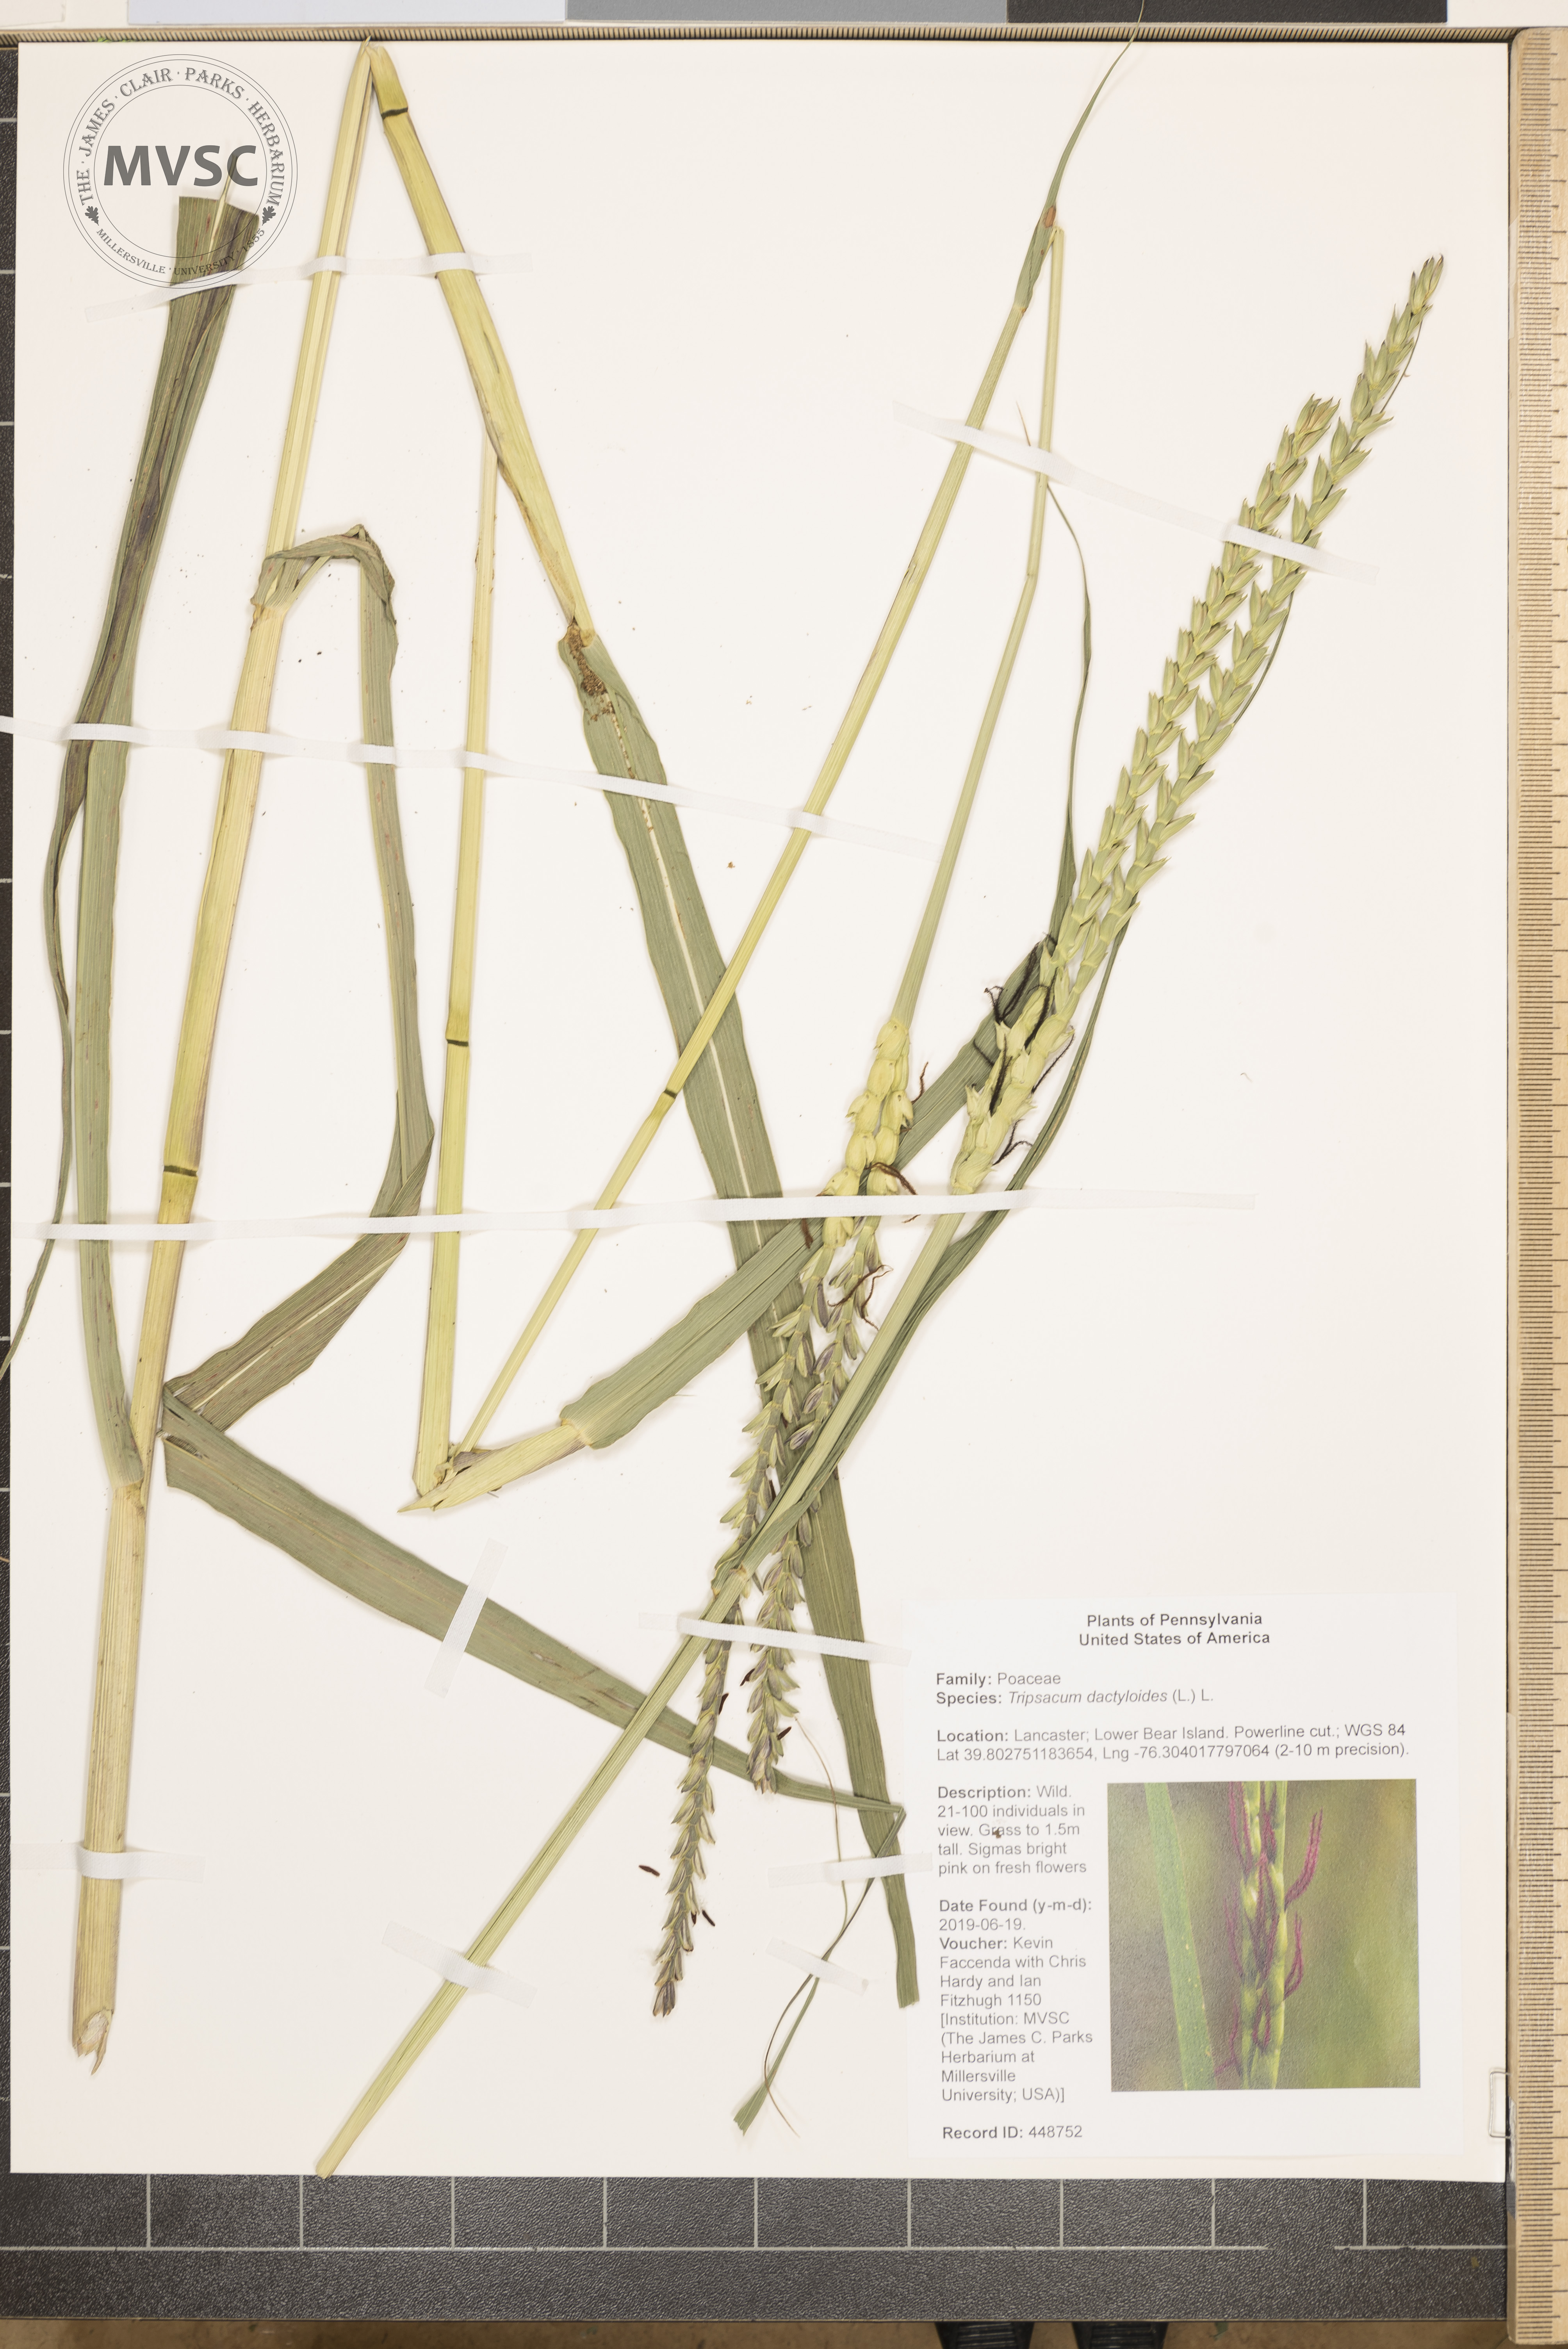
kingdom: Plantae
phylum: Tracheophyta
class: Liliopsida
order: Poales
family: Poaceae
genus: Tripsacum
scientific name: Tripsacum dactyloides
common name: Buffalo-grass
